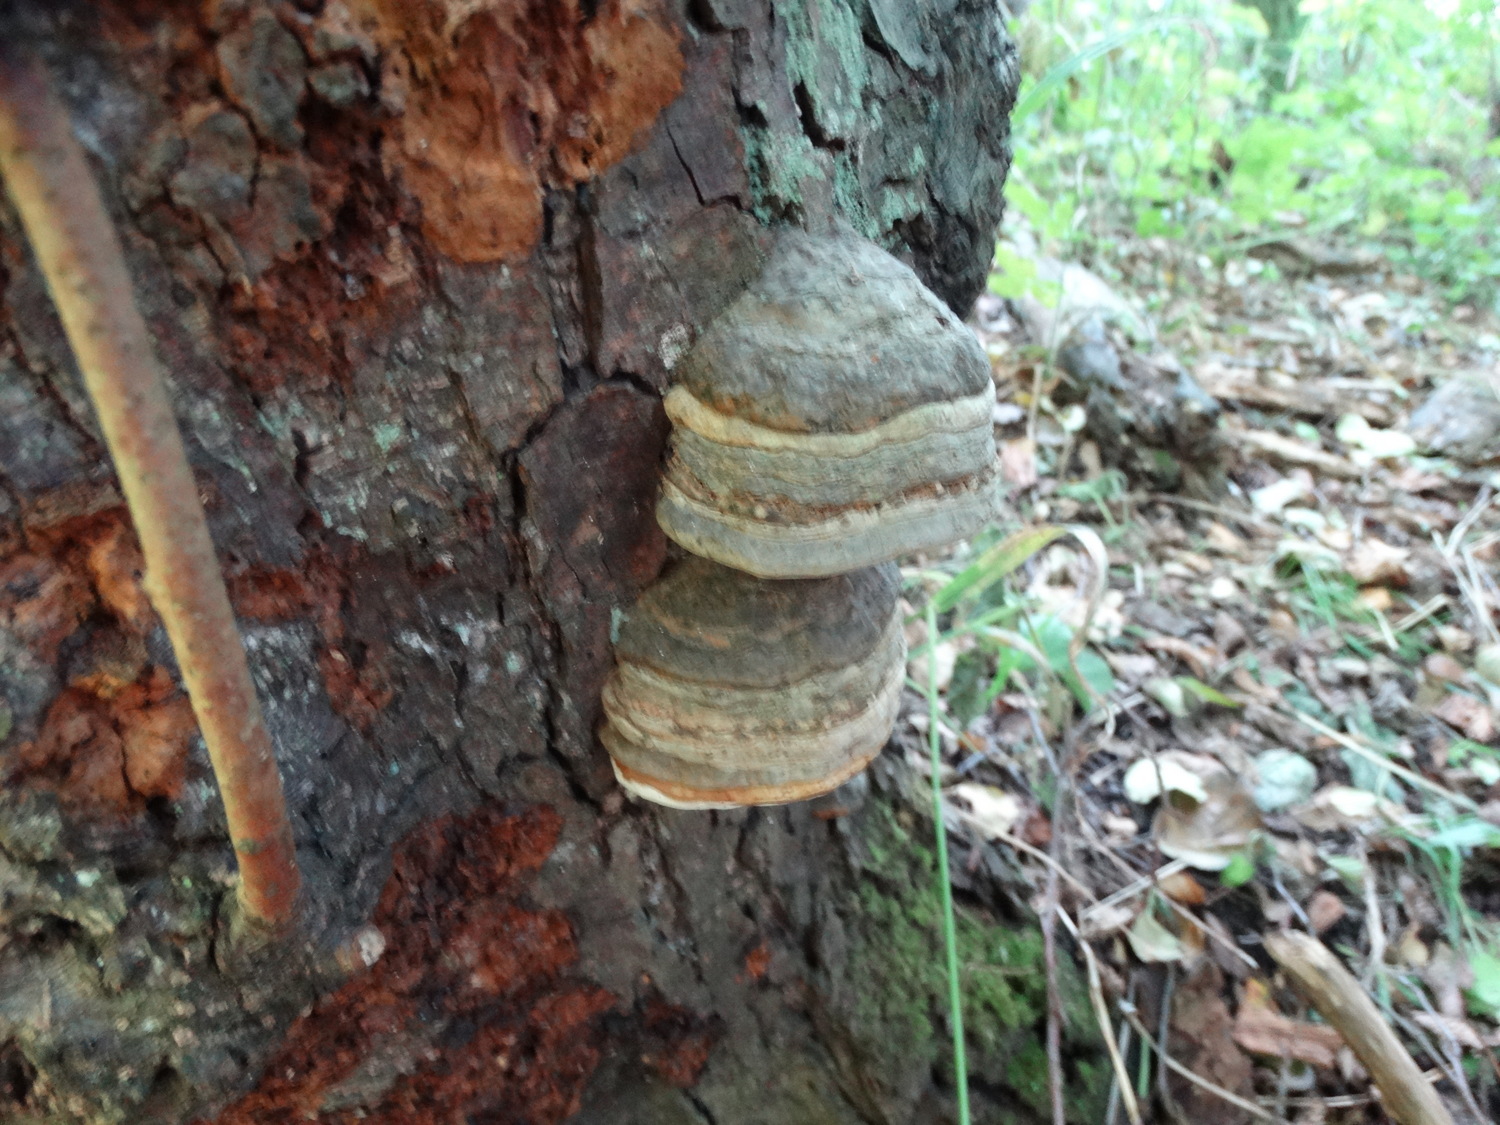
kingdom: Fungi
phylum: Basidiomycota
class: Agaricomycetes
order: Polyporales
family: Polyporaceae
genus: Fomes
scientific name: Fomes fomentarius
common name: tøndersvamp
